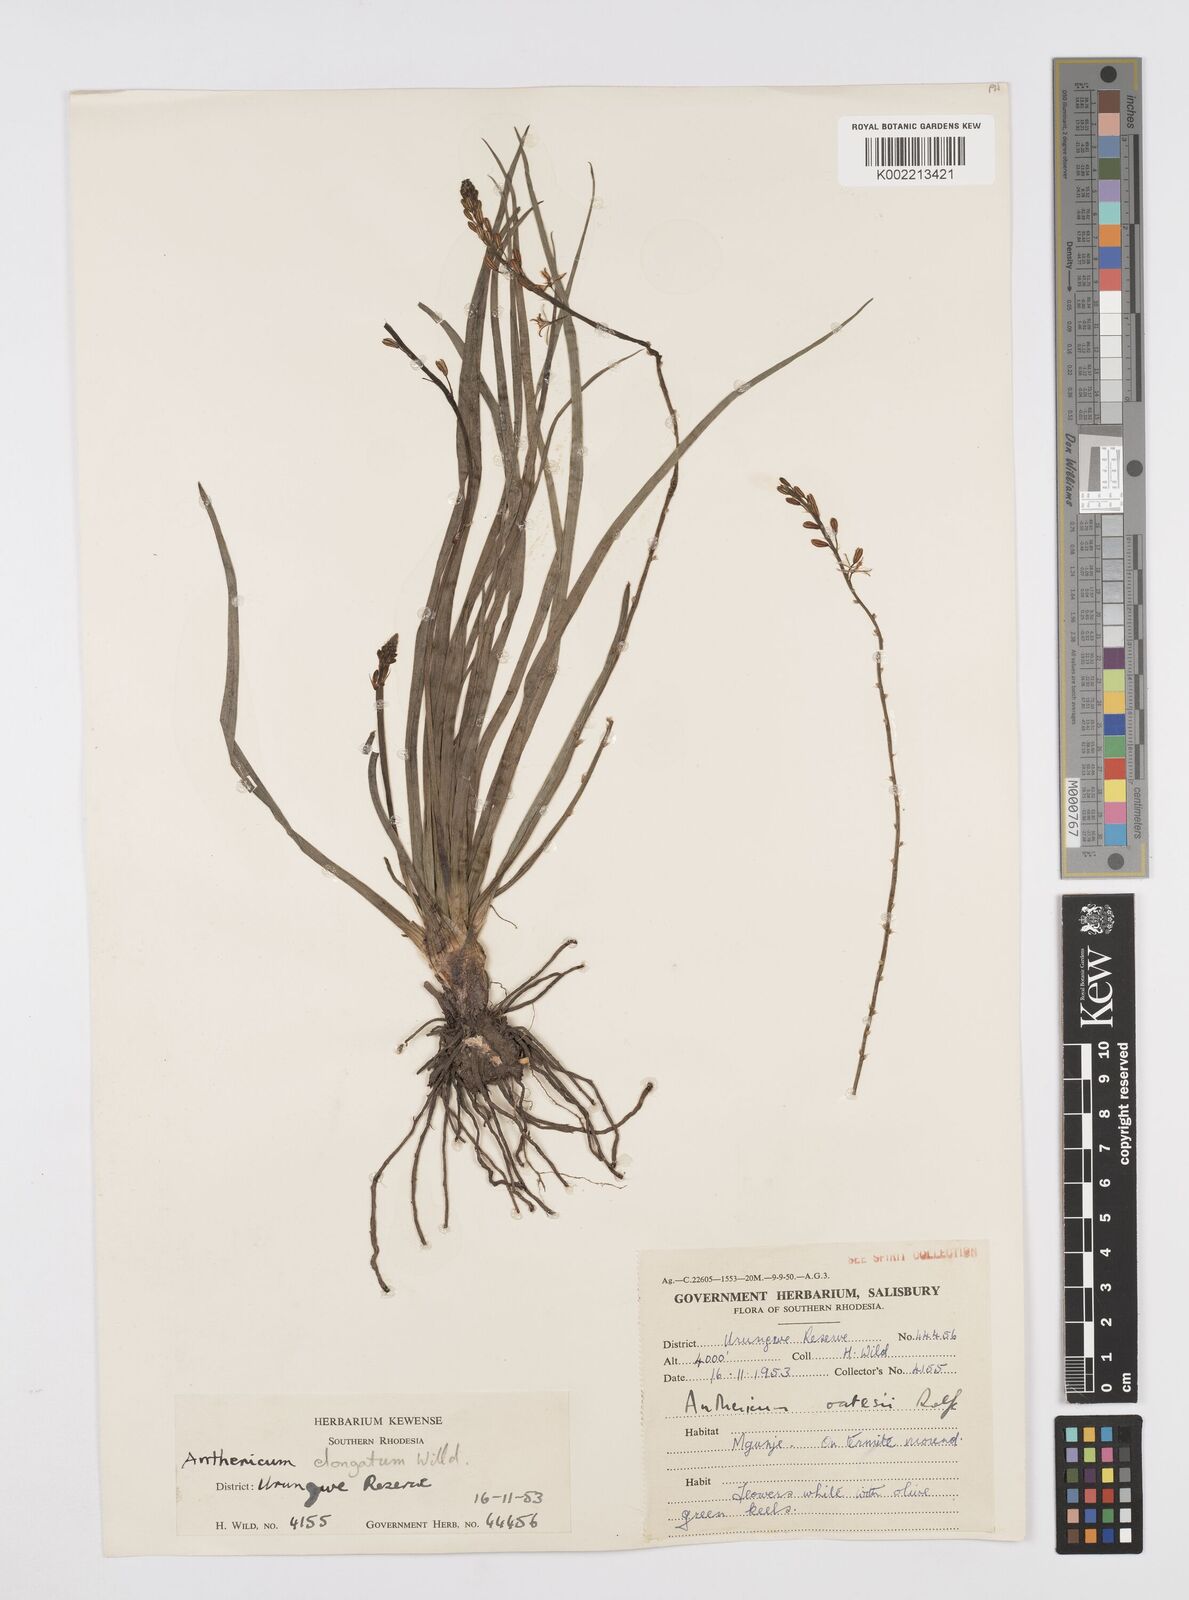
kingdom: Plantae
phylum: Tracheophyta
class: Liliopsida
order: Asparagales
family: Asphodelaceae
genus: Trachyandra
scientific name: Trachyandra saltii
